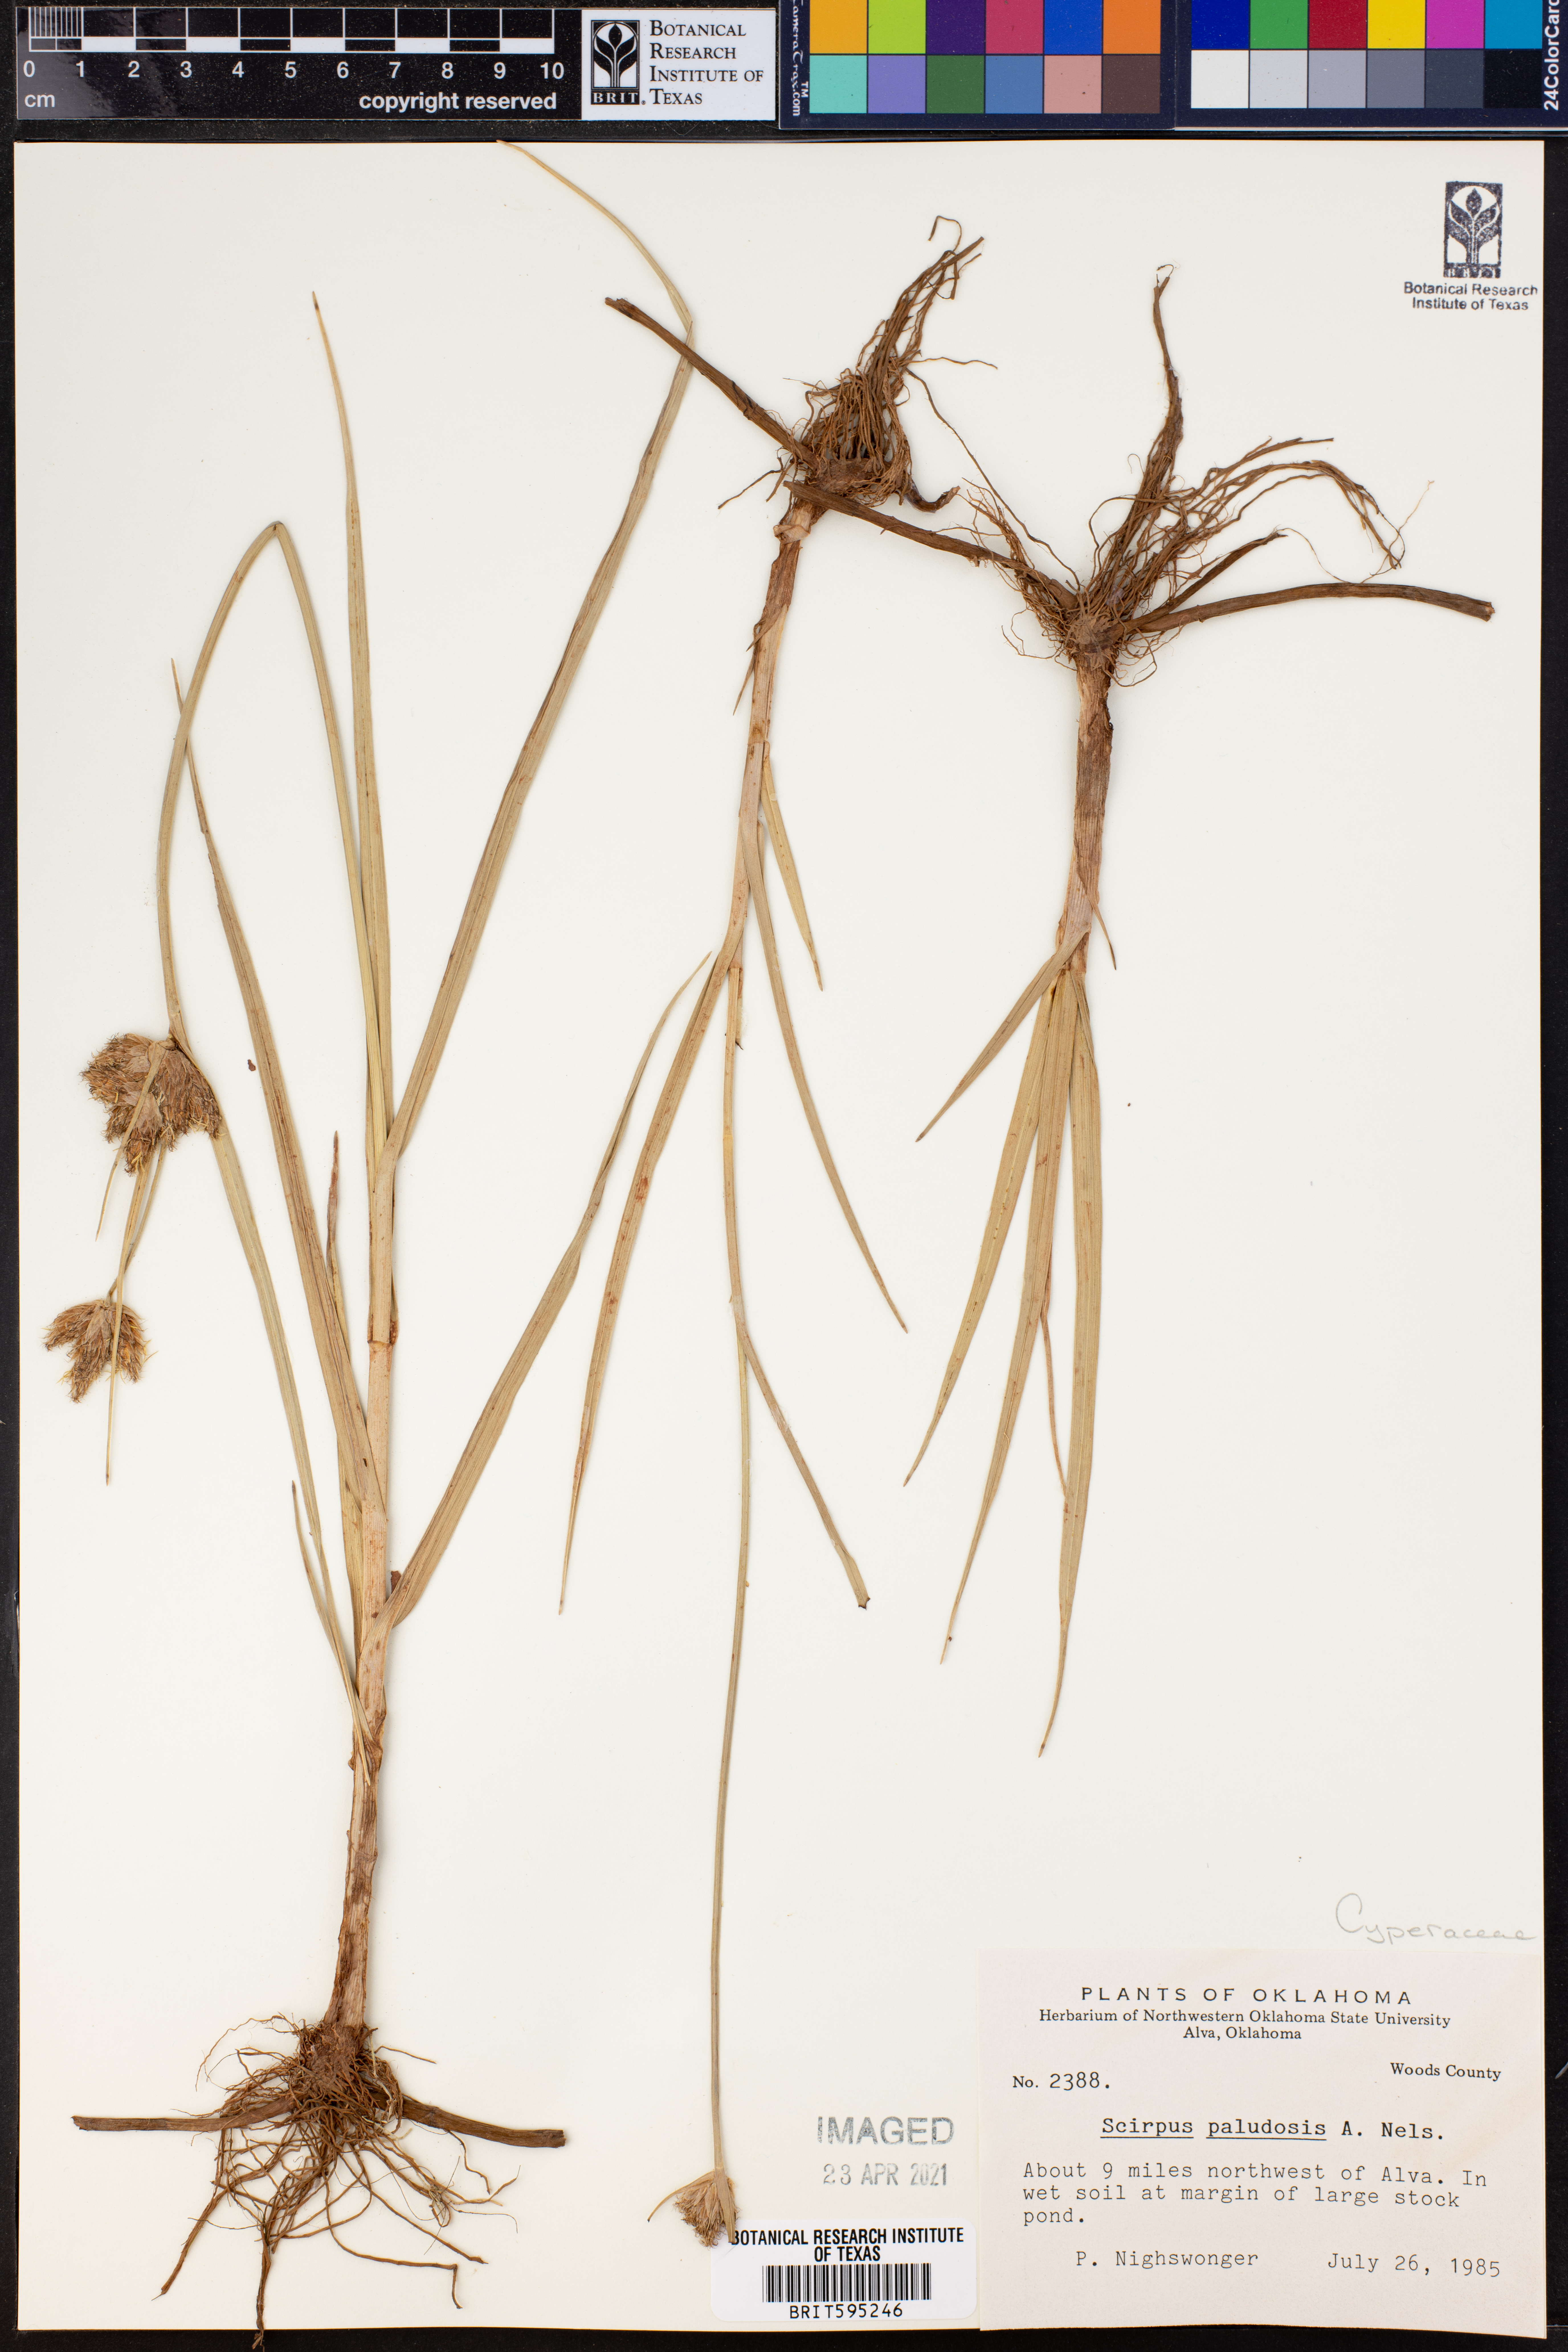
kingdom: Plantae
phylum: Tracheophyta
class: Liliopsida
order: Poales
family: Cyperaceae
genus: Bolboschoenus
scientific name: Bolboschoenus maritimus
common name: Sea club-rush
